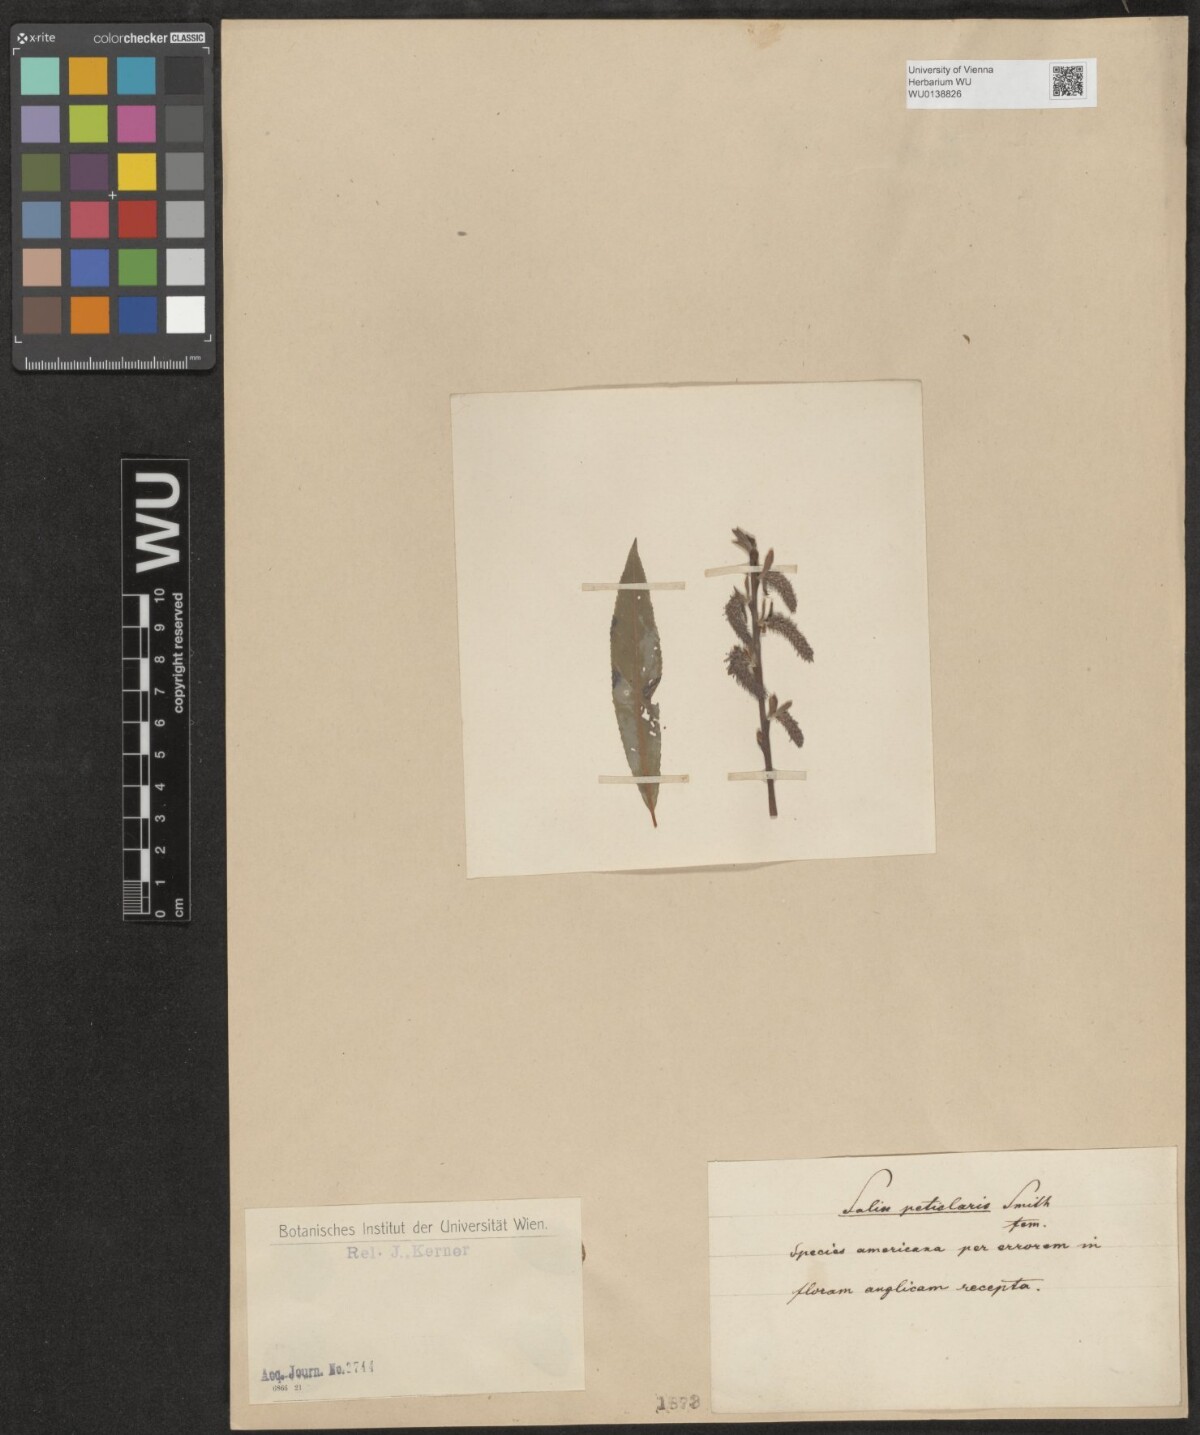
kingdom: Plantae
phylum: Tracheophyta
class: Magnoliopsida
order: Malpighiales
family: Salicaceae
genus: Salix
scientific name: Salix petiolaris
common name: Slender willow
